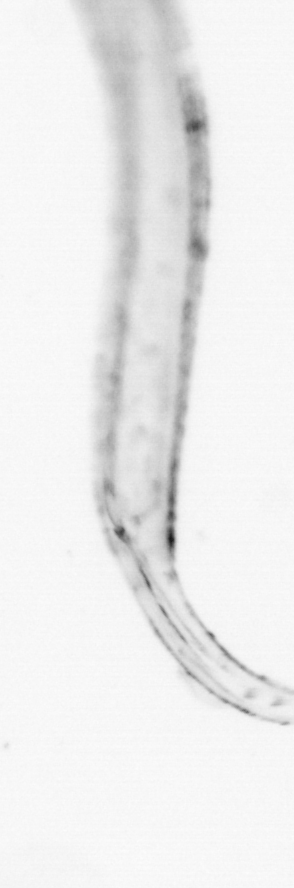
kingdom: Animalia
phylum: Chaetognatha
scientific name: Chaetognatha
